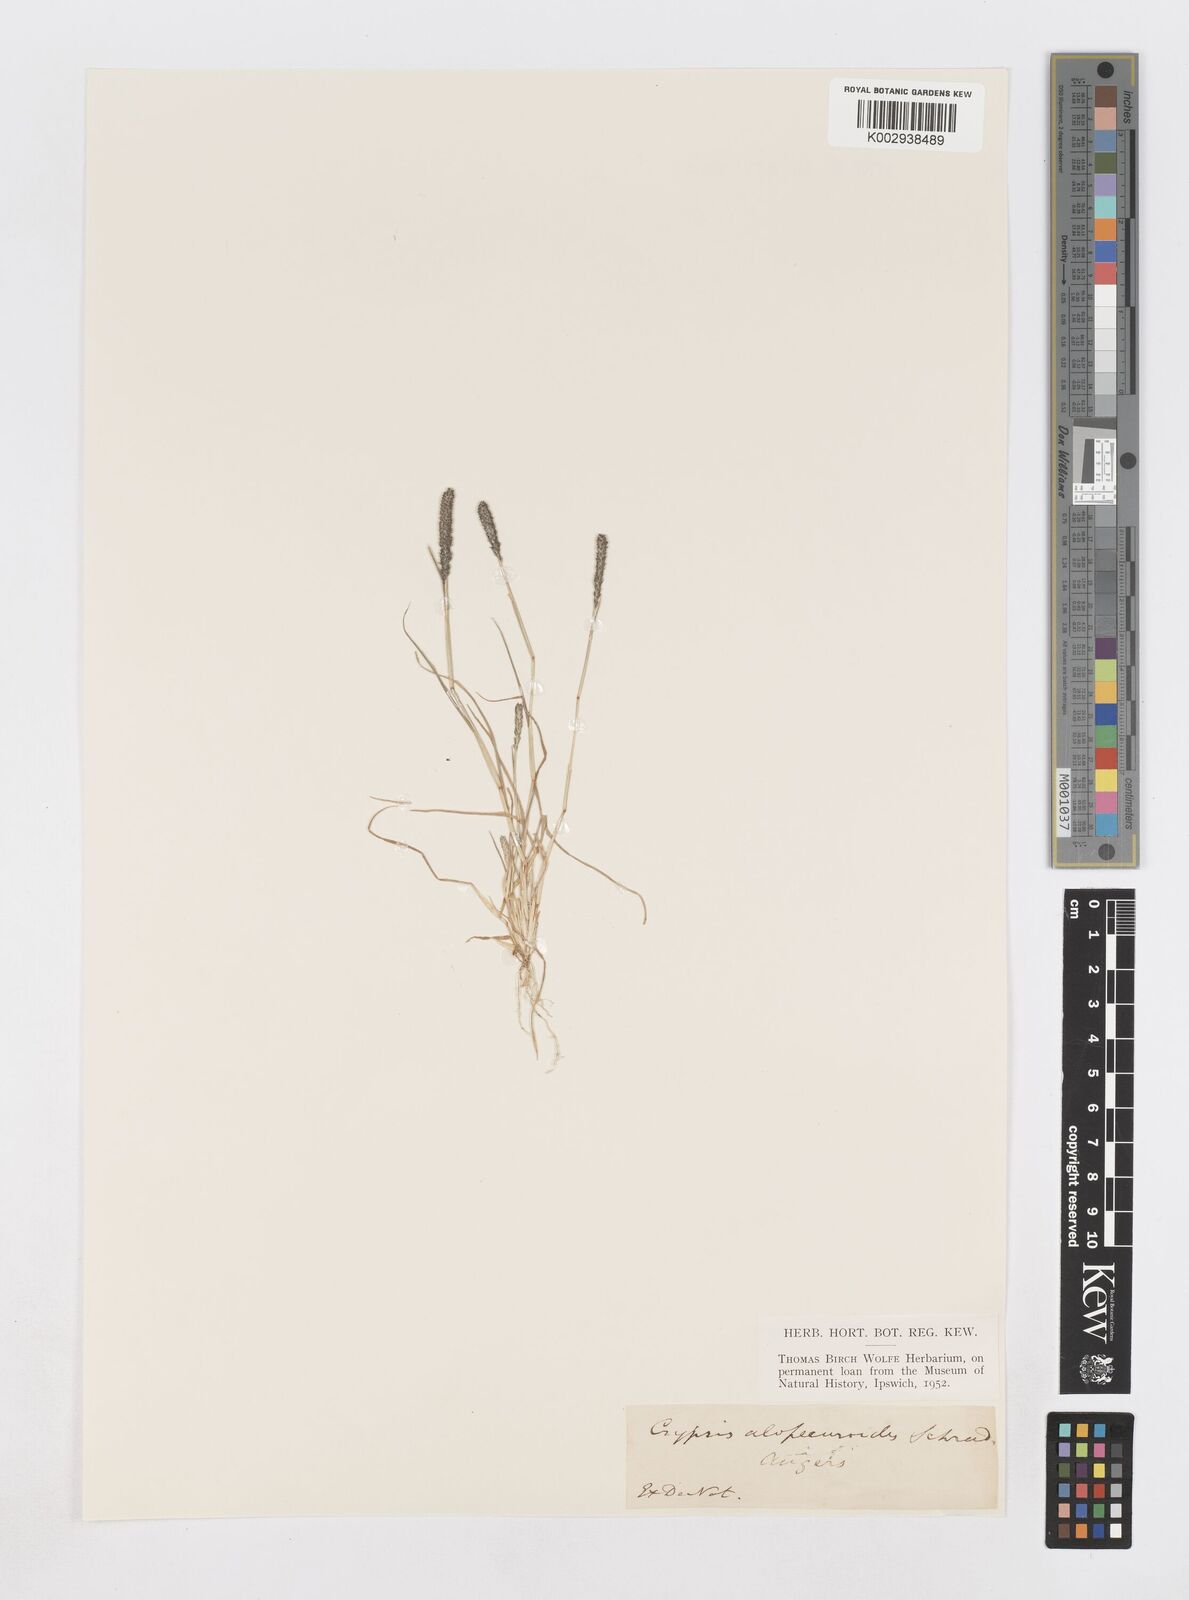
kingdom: Plantae
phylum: Tracheophyta
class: Liliopsida
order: Poales
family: Poaceae
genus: Sporobolus
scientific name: Sporobolus alopecuroides
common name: Foxtail pricklegrass
